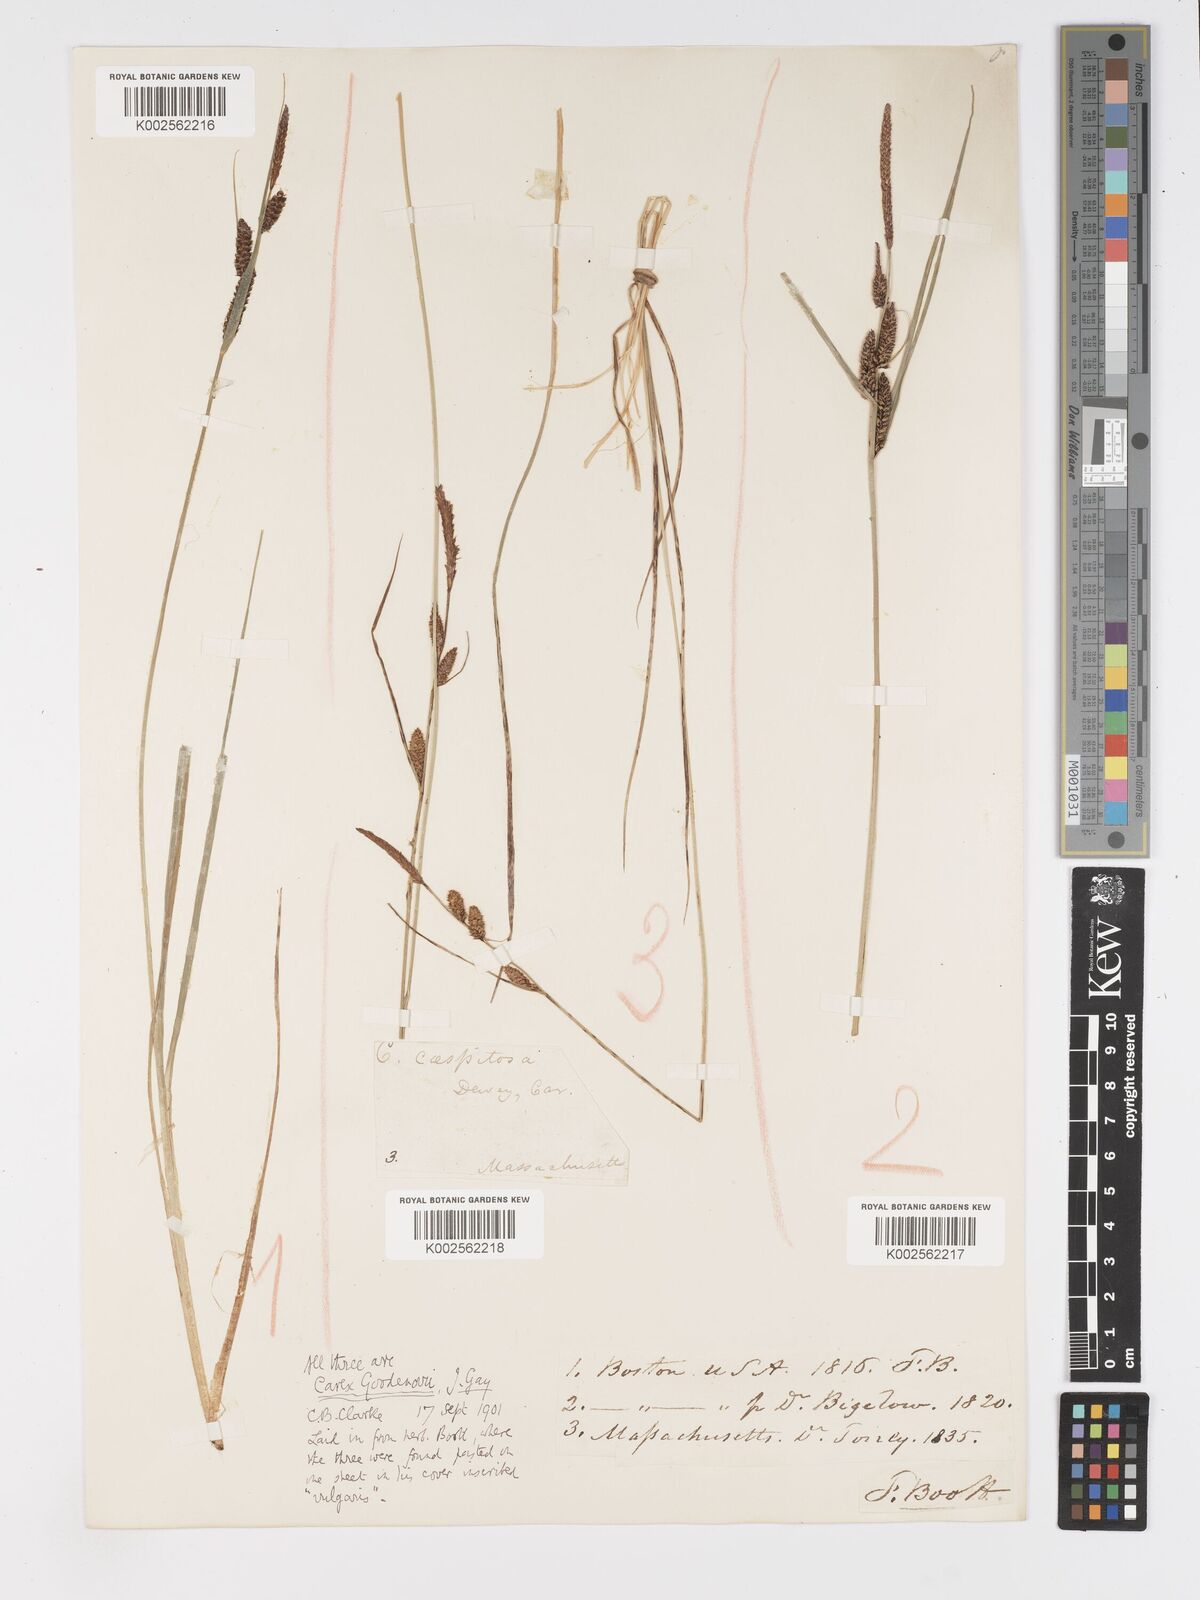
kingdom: Plantae
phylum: Tracheophyta
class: Liliopsida
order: Poales
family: Cyperaceae
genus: Carex
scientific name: Carex nigra
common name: Common sedge
